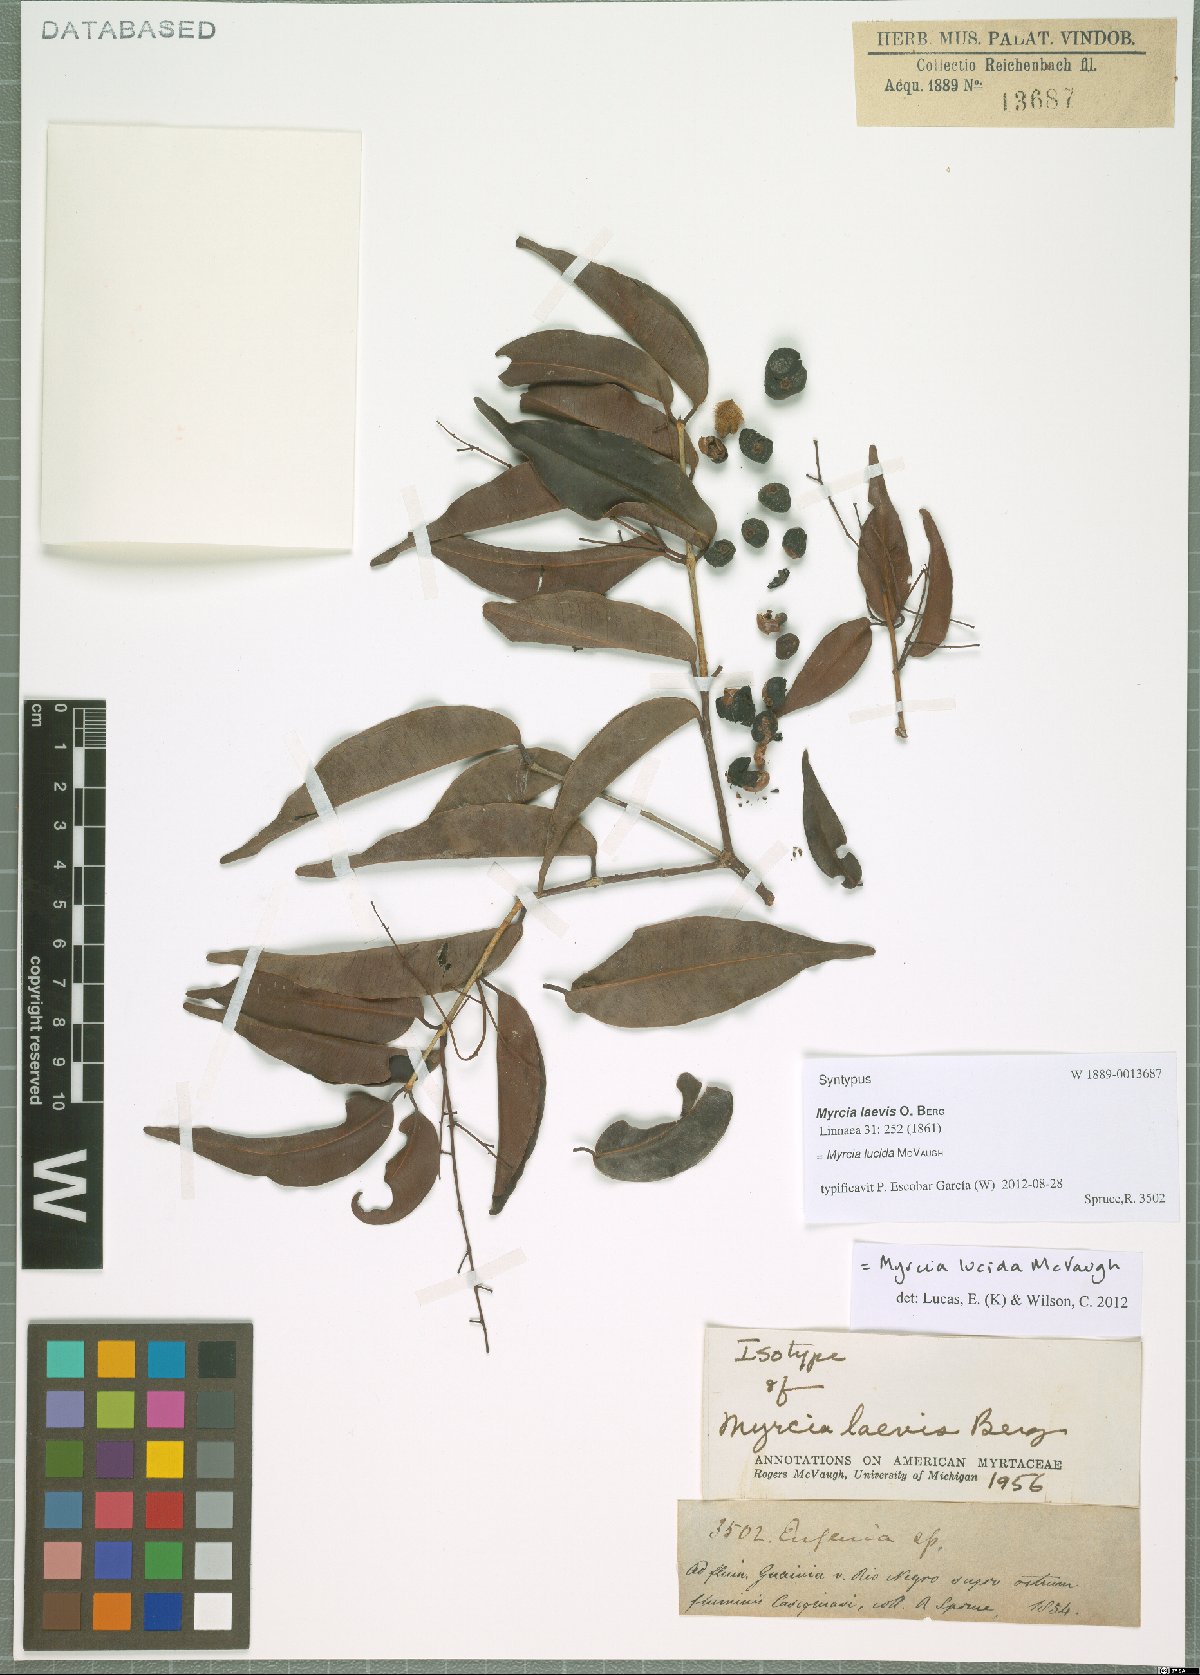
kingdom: Plantae
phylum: Tracheophyta
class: Magnoliopsida
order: Myrtales
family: Myrtaceae
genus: Myrcia
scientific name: Myrcia inaequiloba
